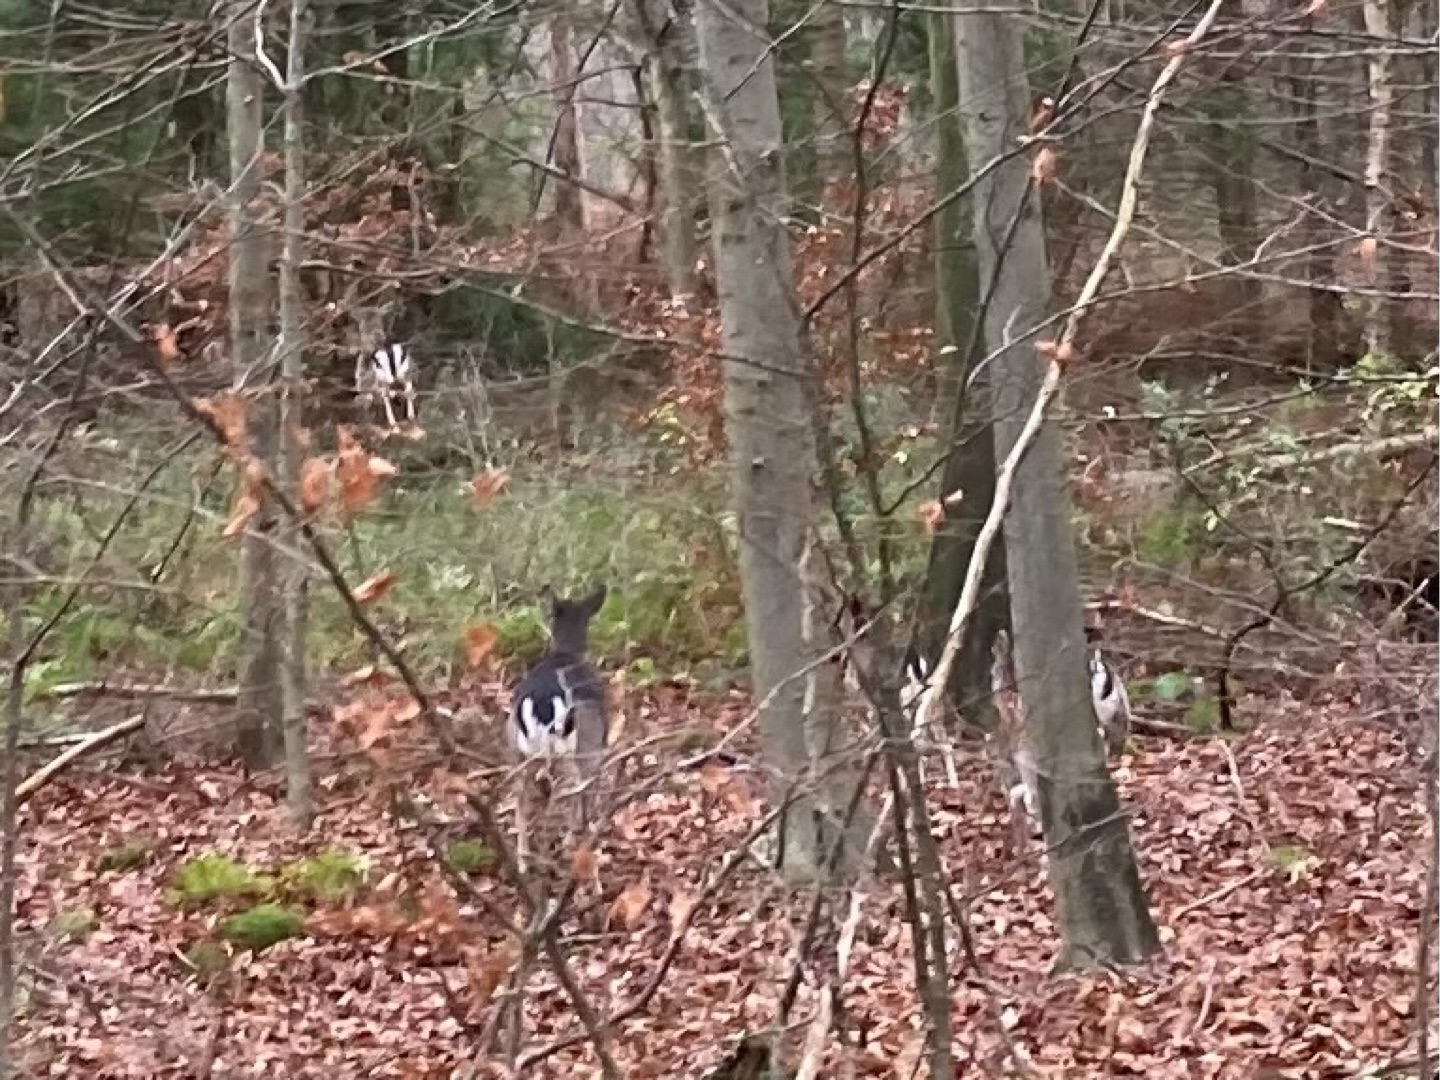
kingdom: Animalia
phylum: Chordata
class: Mammalia
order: Artiodactyla
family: Cervidae
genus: Dama
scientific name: Dama dama
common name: Dådyr
